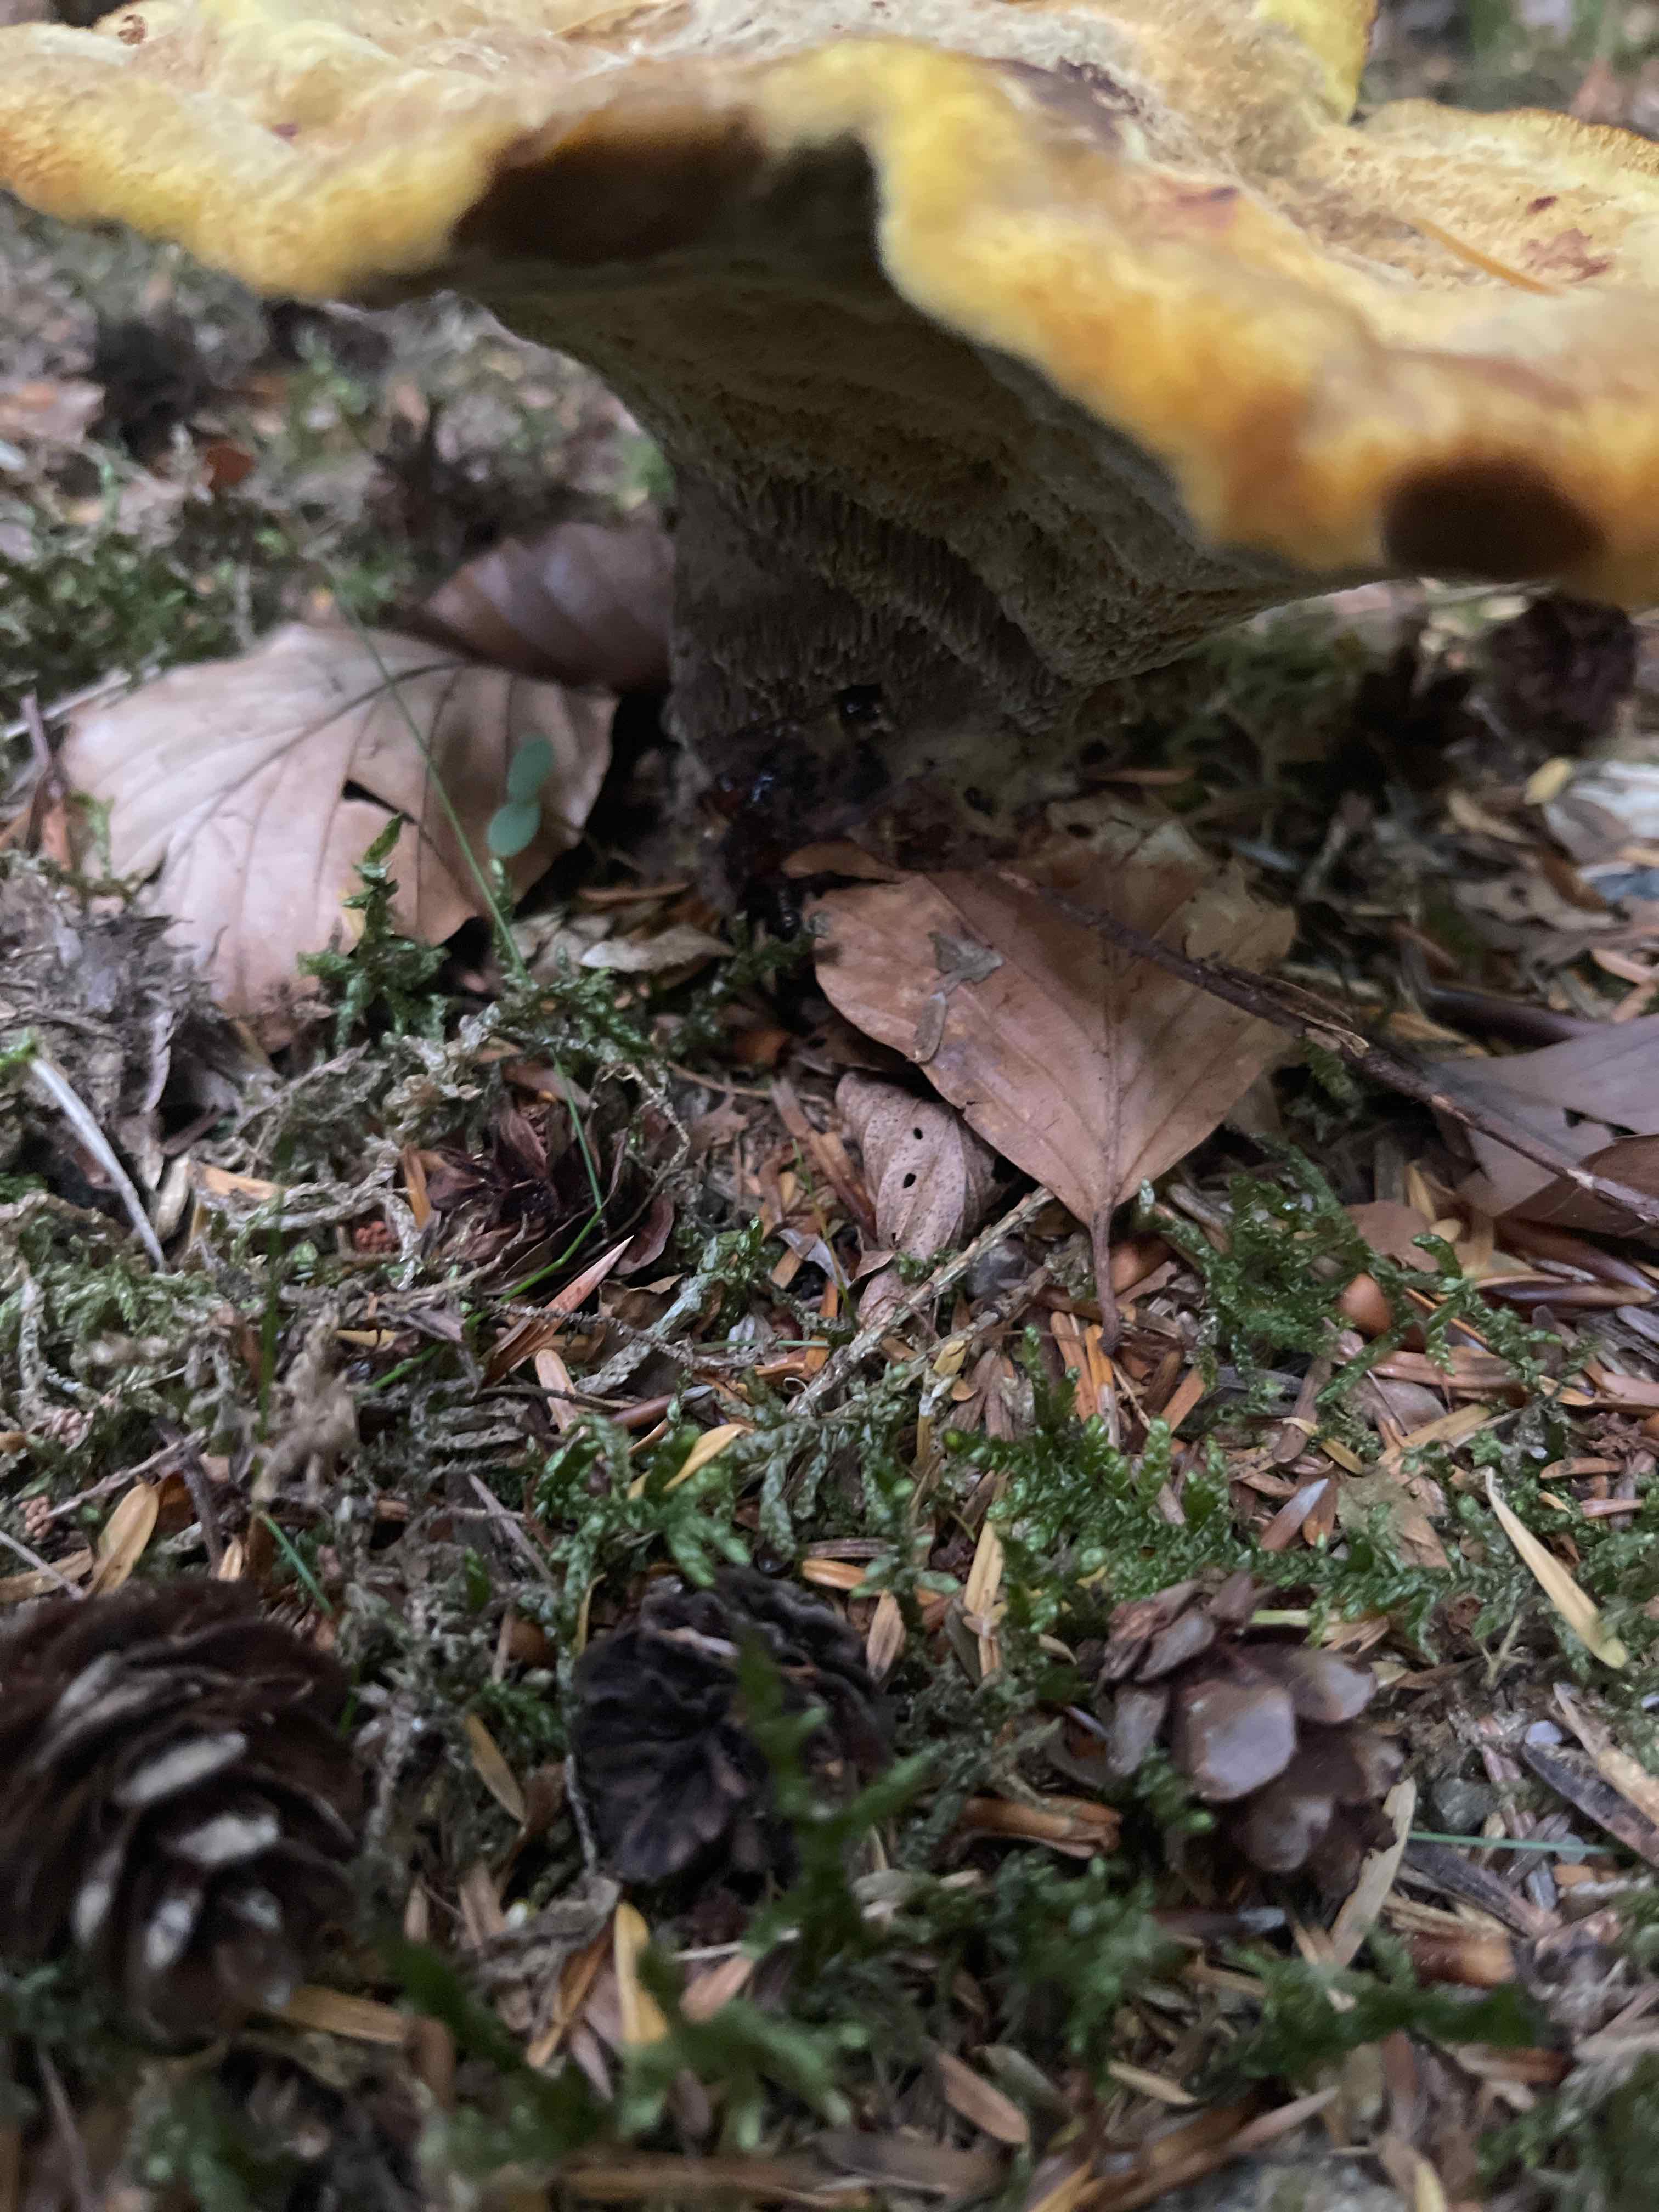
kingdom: Fungi
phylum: Basidiomycota
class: Agaricomycetes
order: Polyporales
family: Laetiporaceae
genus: Phaeolus
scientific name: Phaeolus schweinitzii
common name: brunporesvamp
